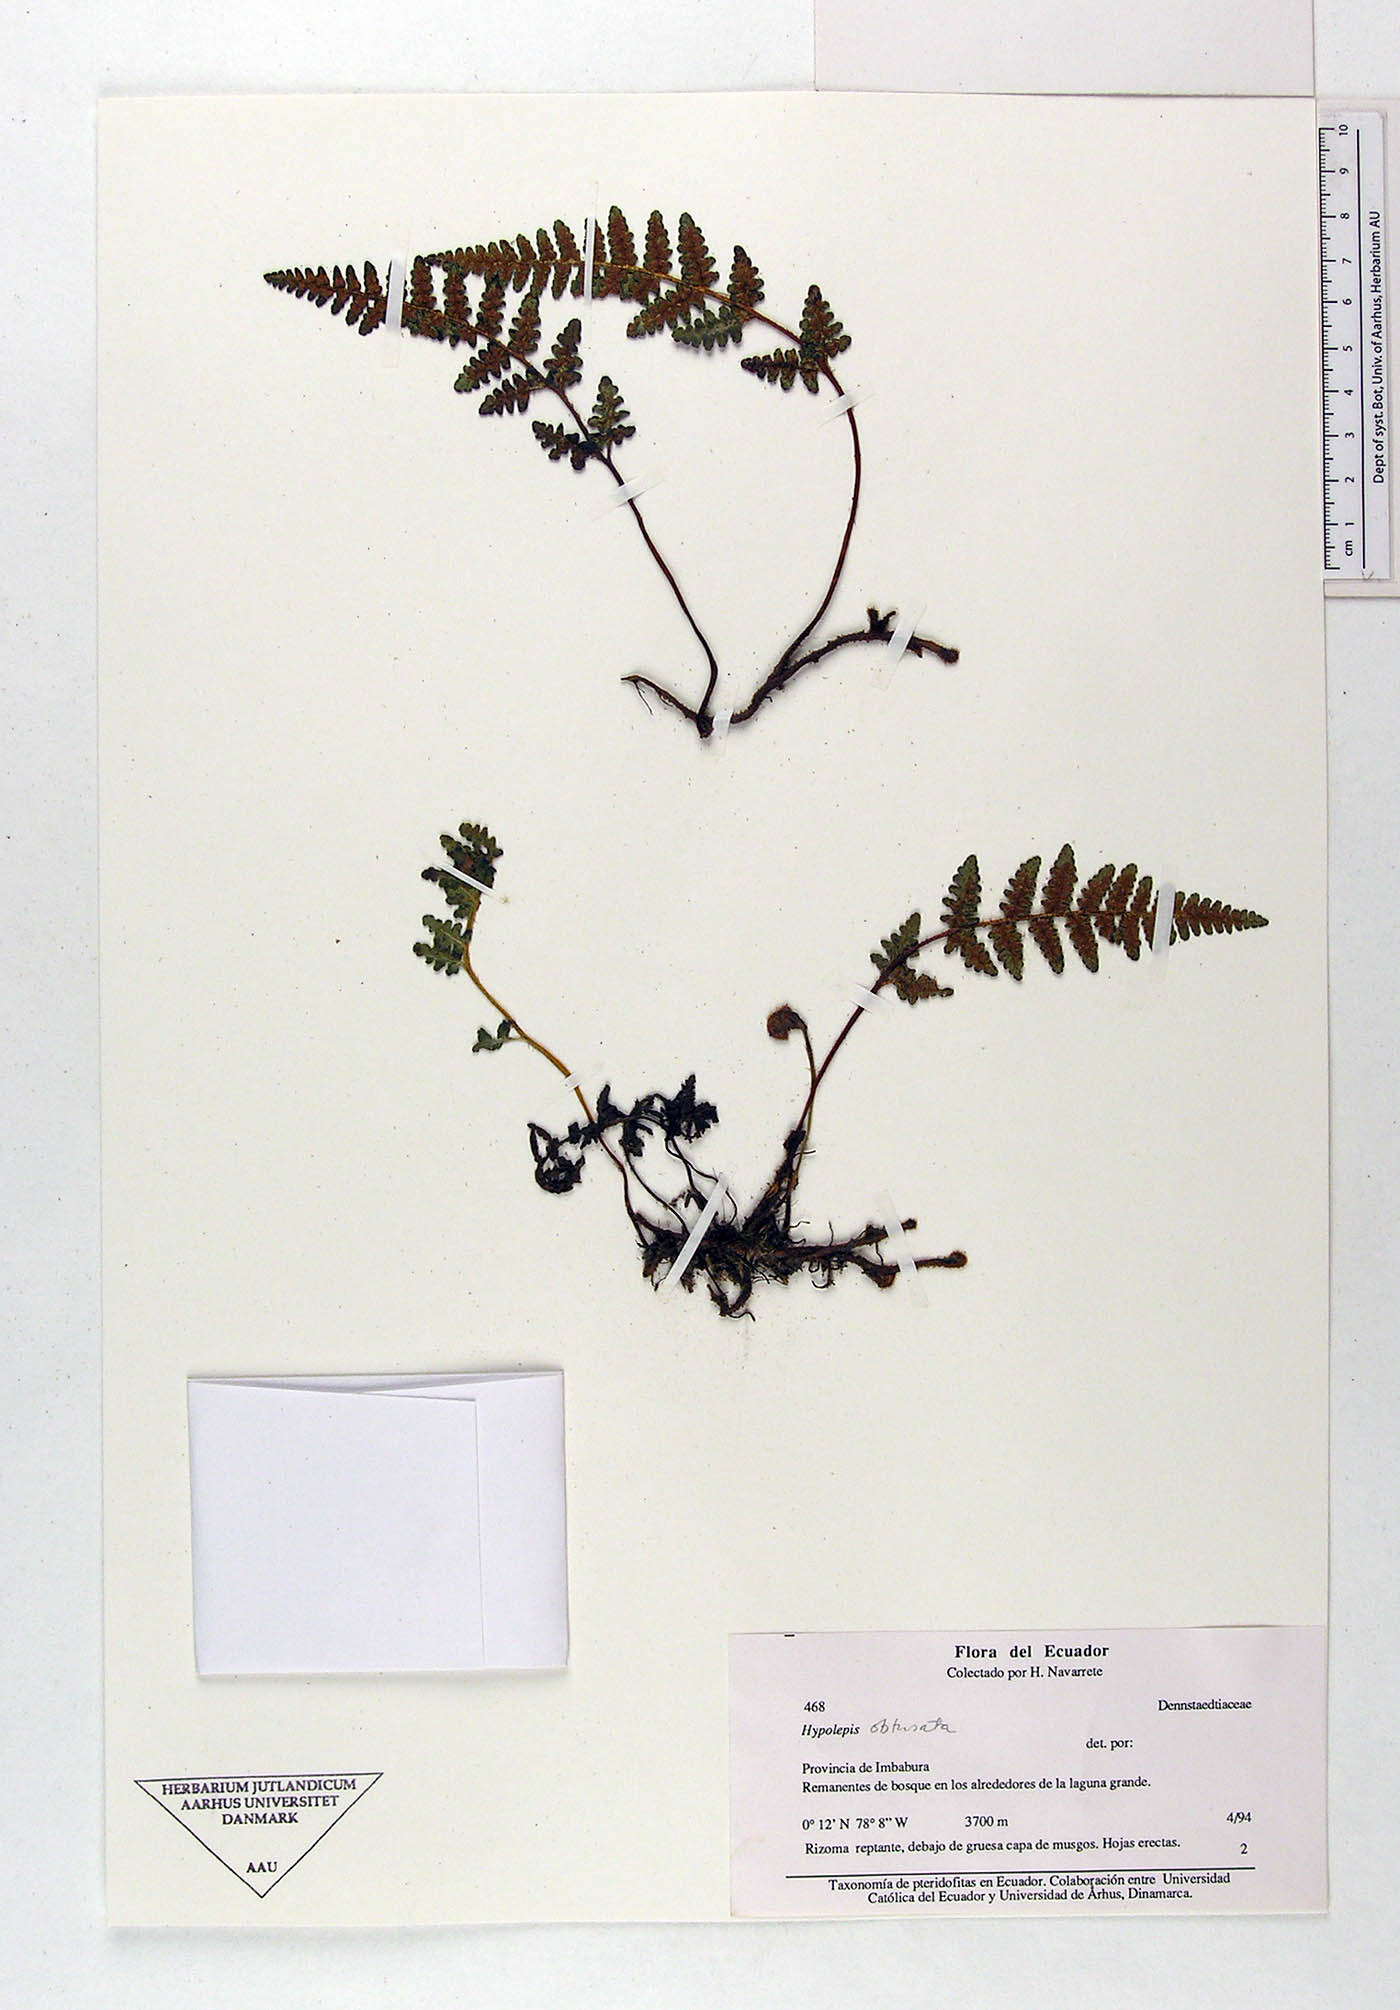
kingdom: Plantae
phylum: Tracheophyta
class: Polypodiopsida
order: Polypodiales
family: Dennstaedtiaceae
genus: Hypolepis
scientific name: Hypolepis obtusata
